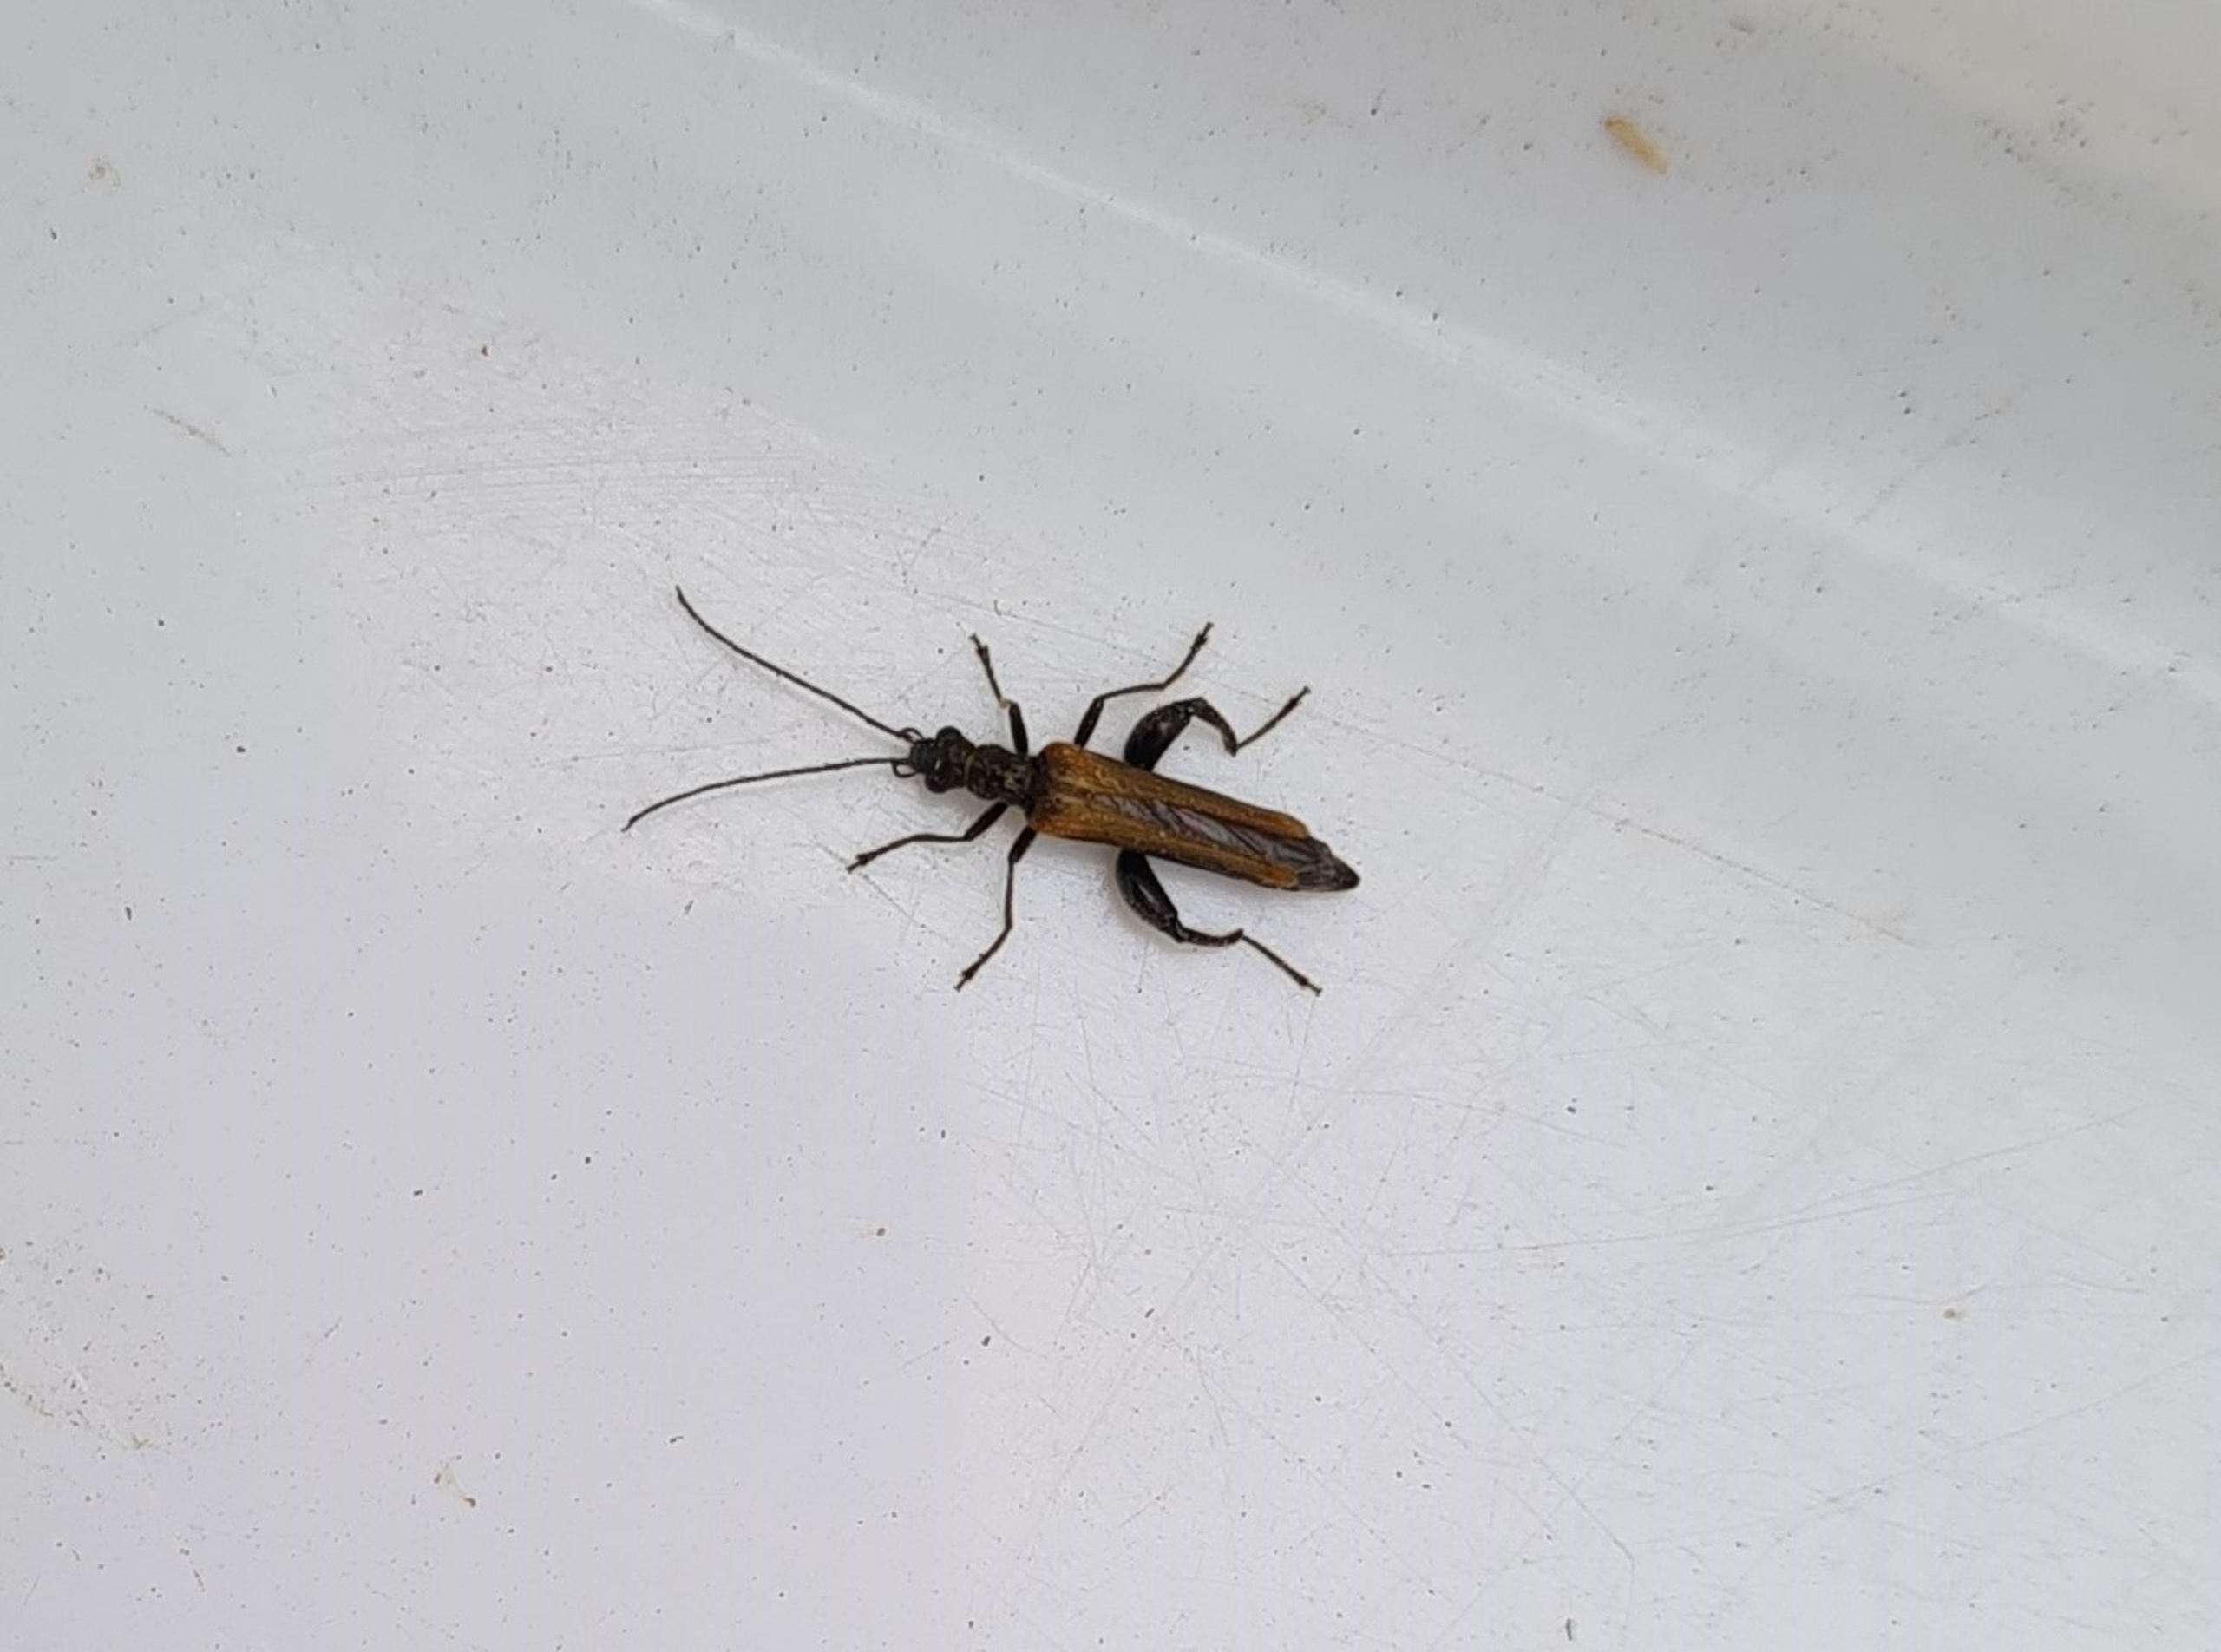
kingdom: Animalia
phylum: Arthropoda
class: Insecta
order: Coleoptera
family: Oedemeridae
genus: Oedemera
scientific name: Oedemera femorata
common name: Gulvinget solbille
